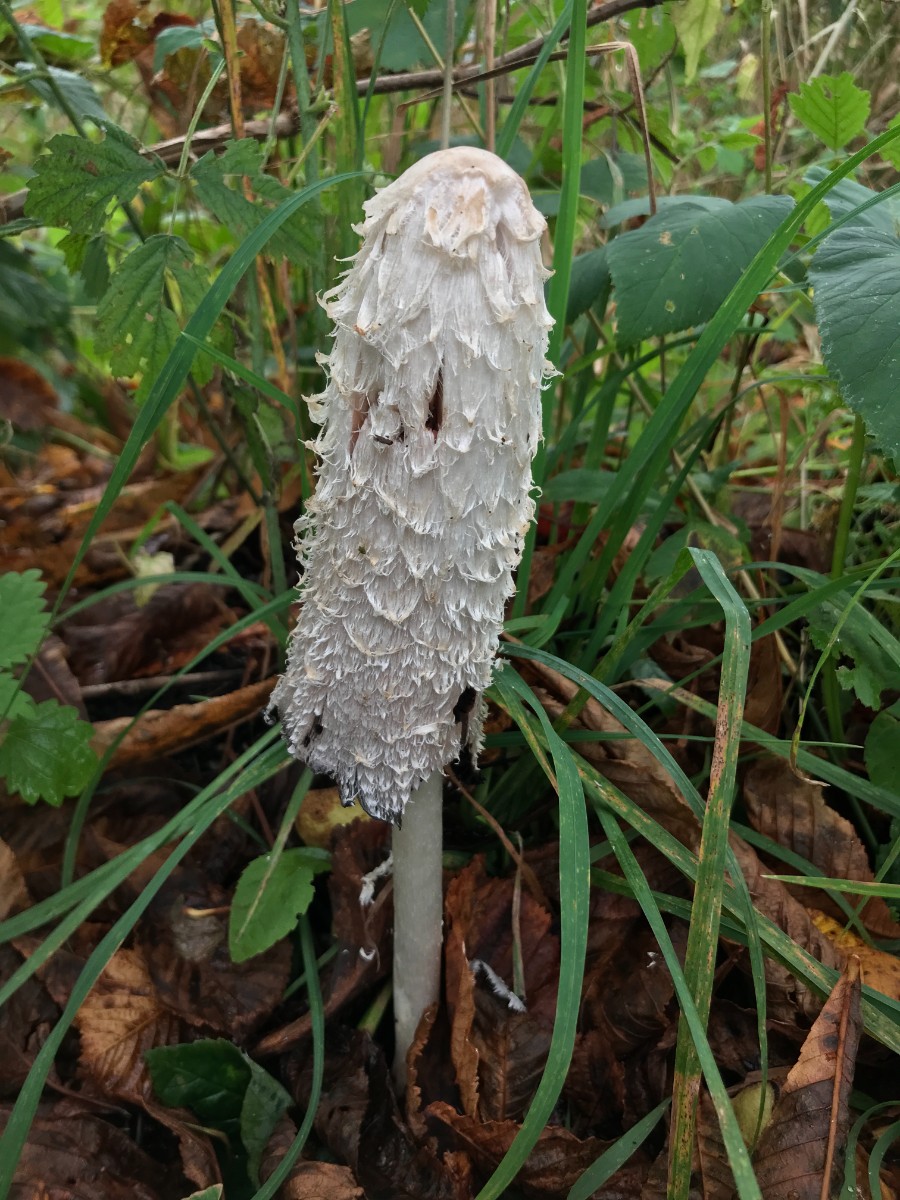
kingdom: Fungi
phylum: Basidiomycota
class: Agaricomycetes
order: Agaricales
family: Agaricaceae
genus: Coprinus
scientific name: Coprinus comatus
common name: stor parykhat
